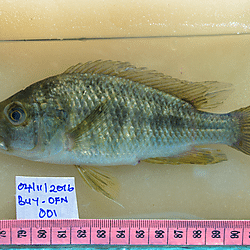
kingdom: Animalia
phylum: Chordata
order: Perciformes
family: Cichlidae
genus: Haplochromis
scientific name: Haplochromis
